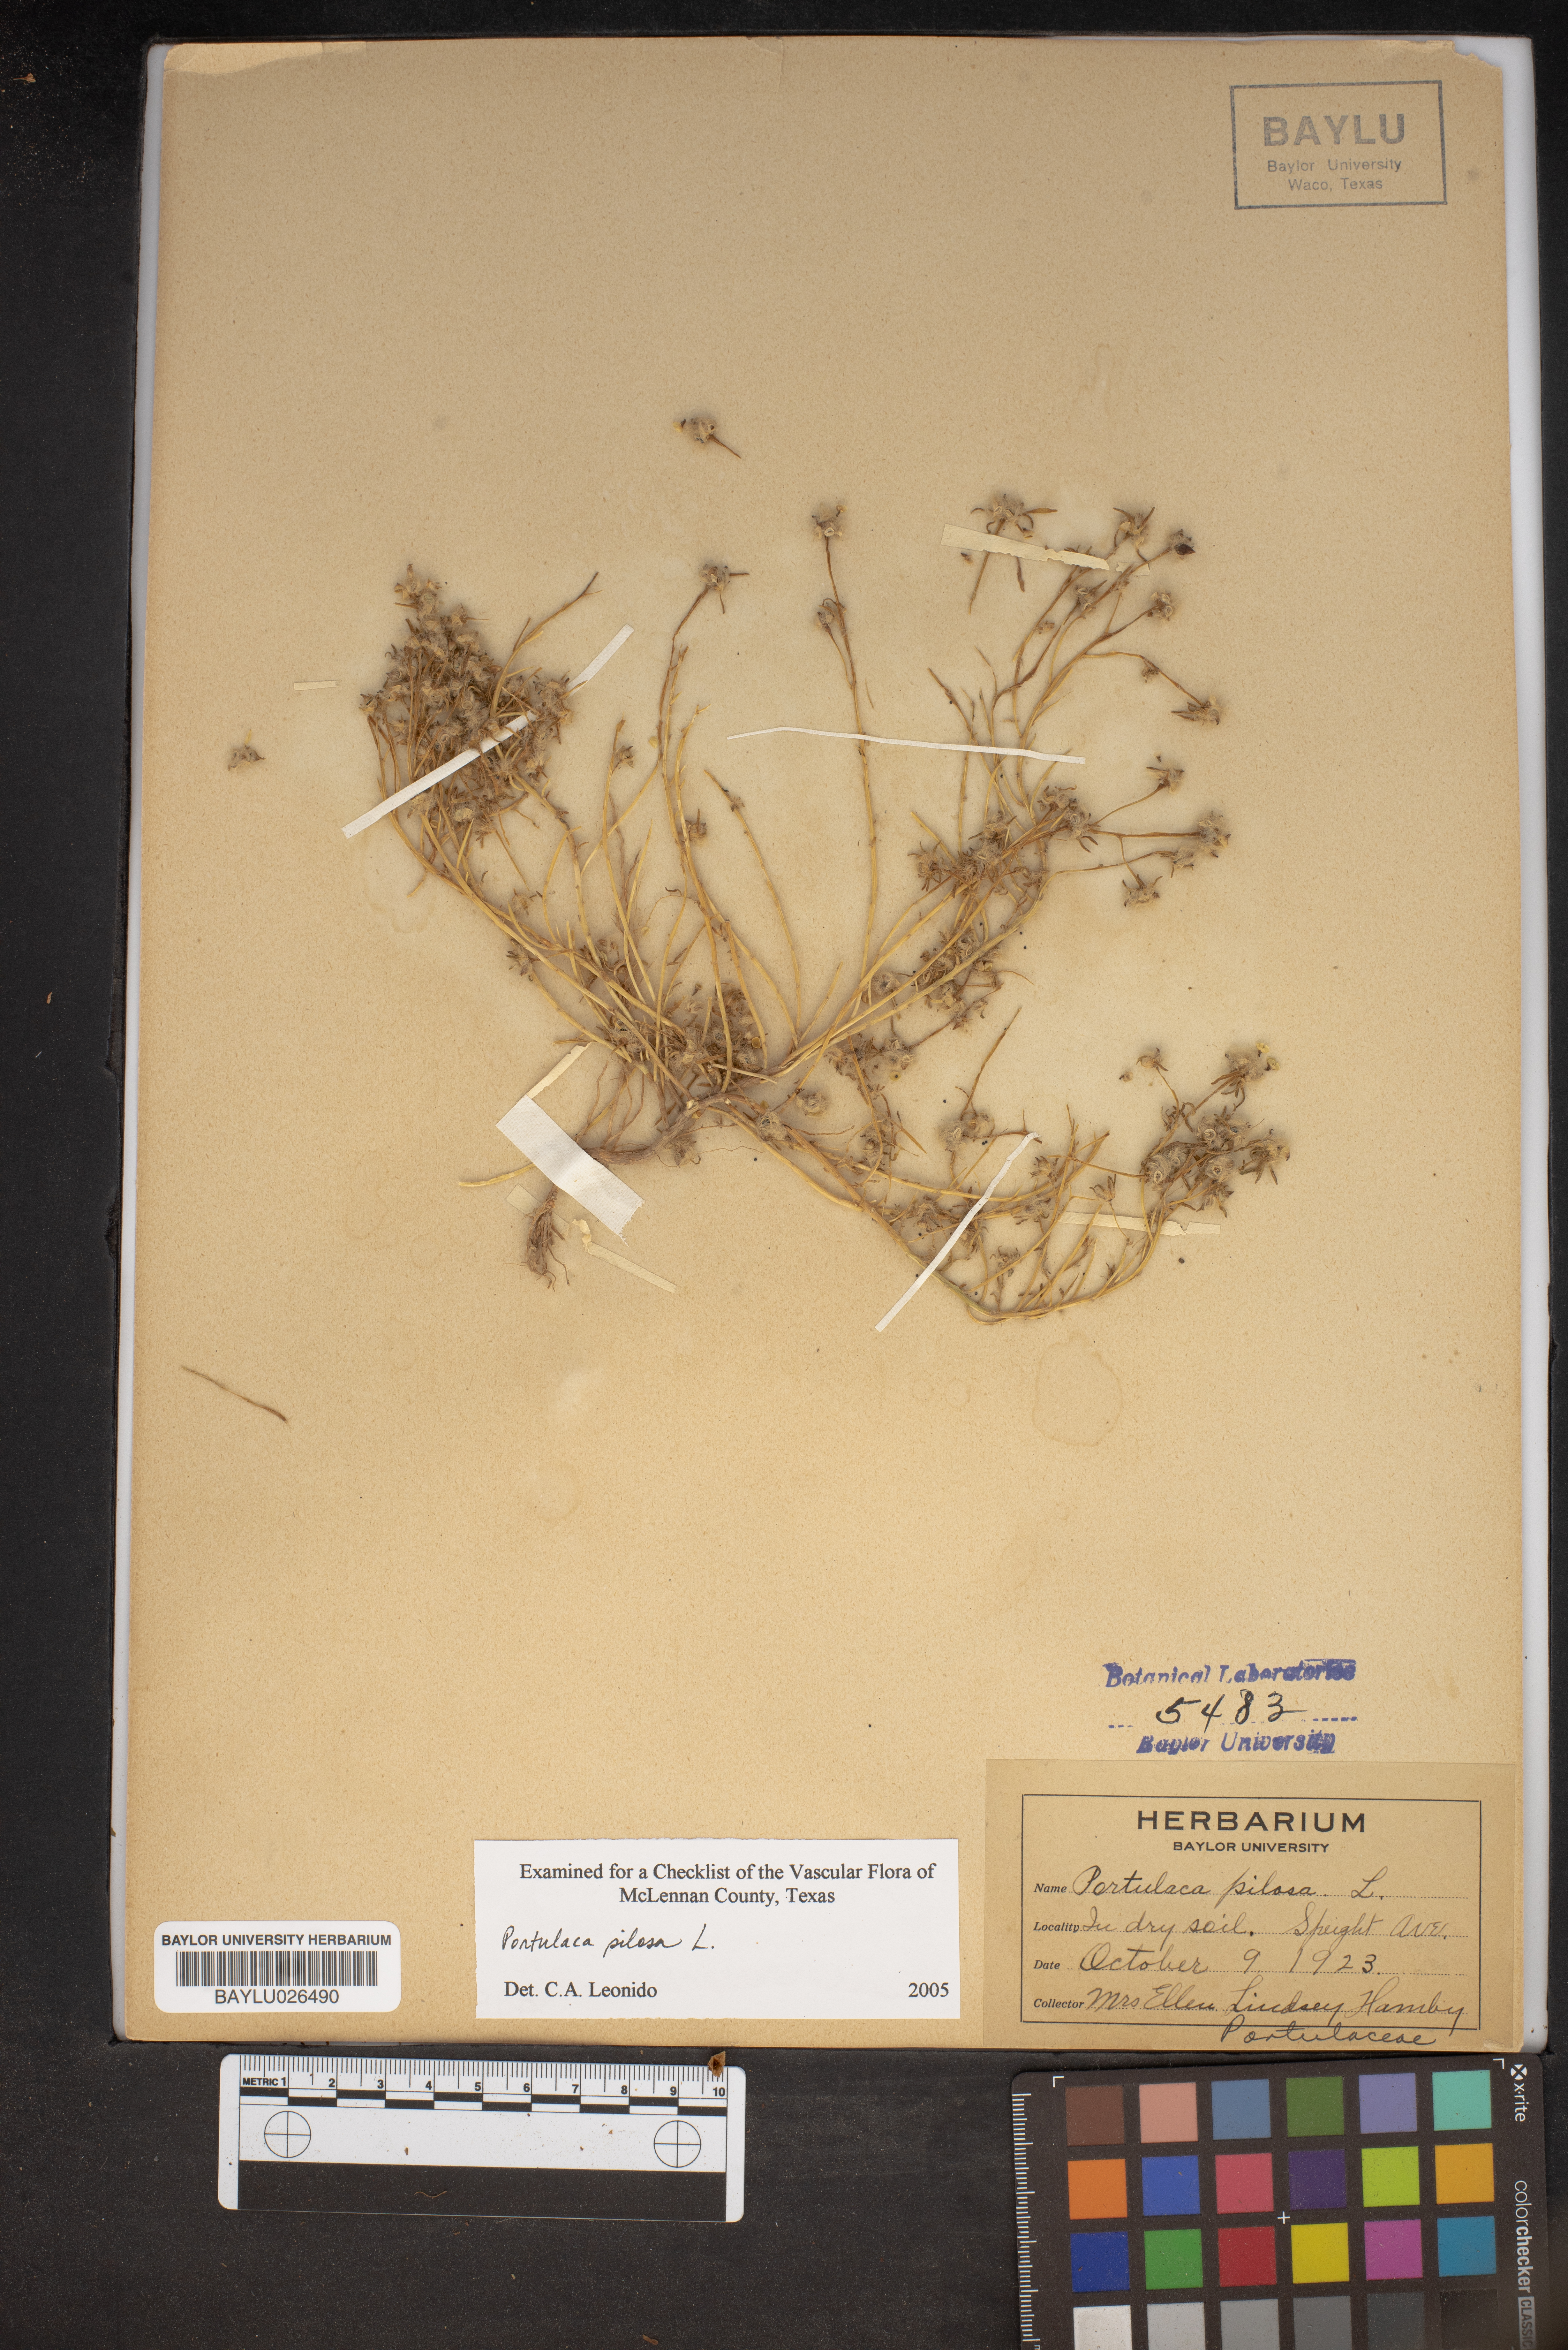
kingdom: Plantae
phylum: Tracheophyta
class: Magnoliopsida
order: Caryophyllales
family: Portulacaceae
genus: Portulaca
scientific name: Portulaca pilosa
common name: Kiss me quick
